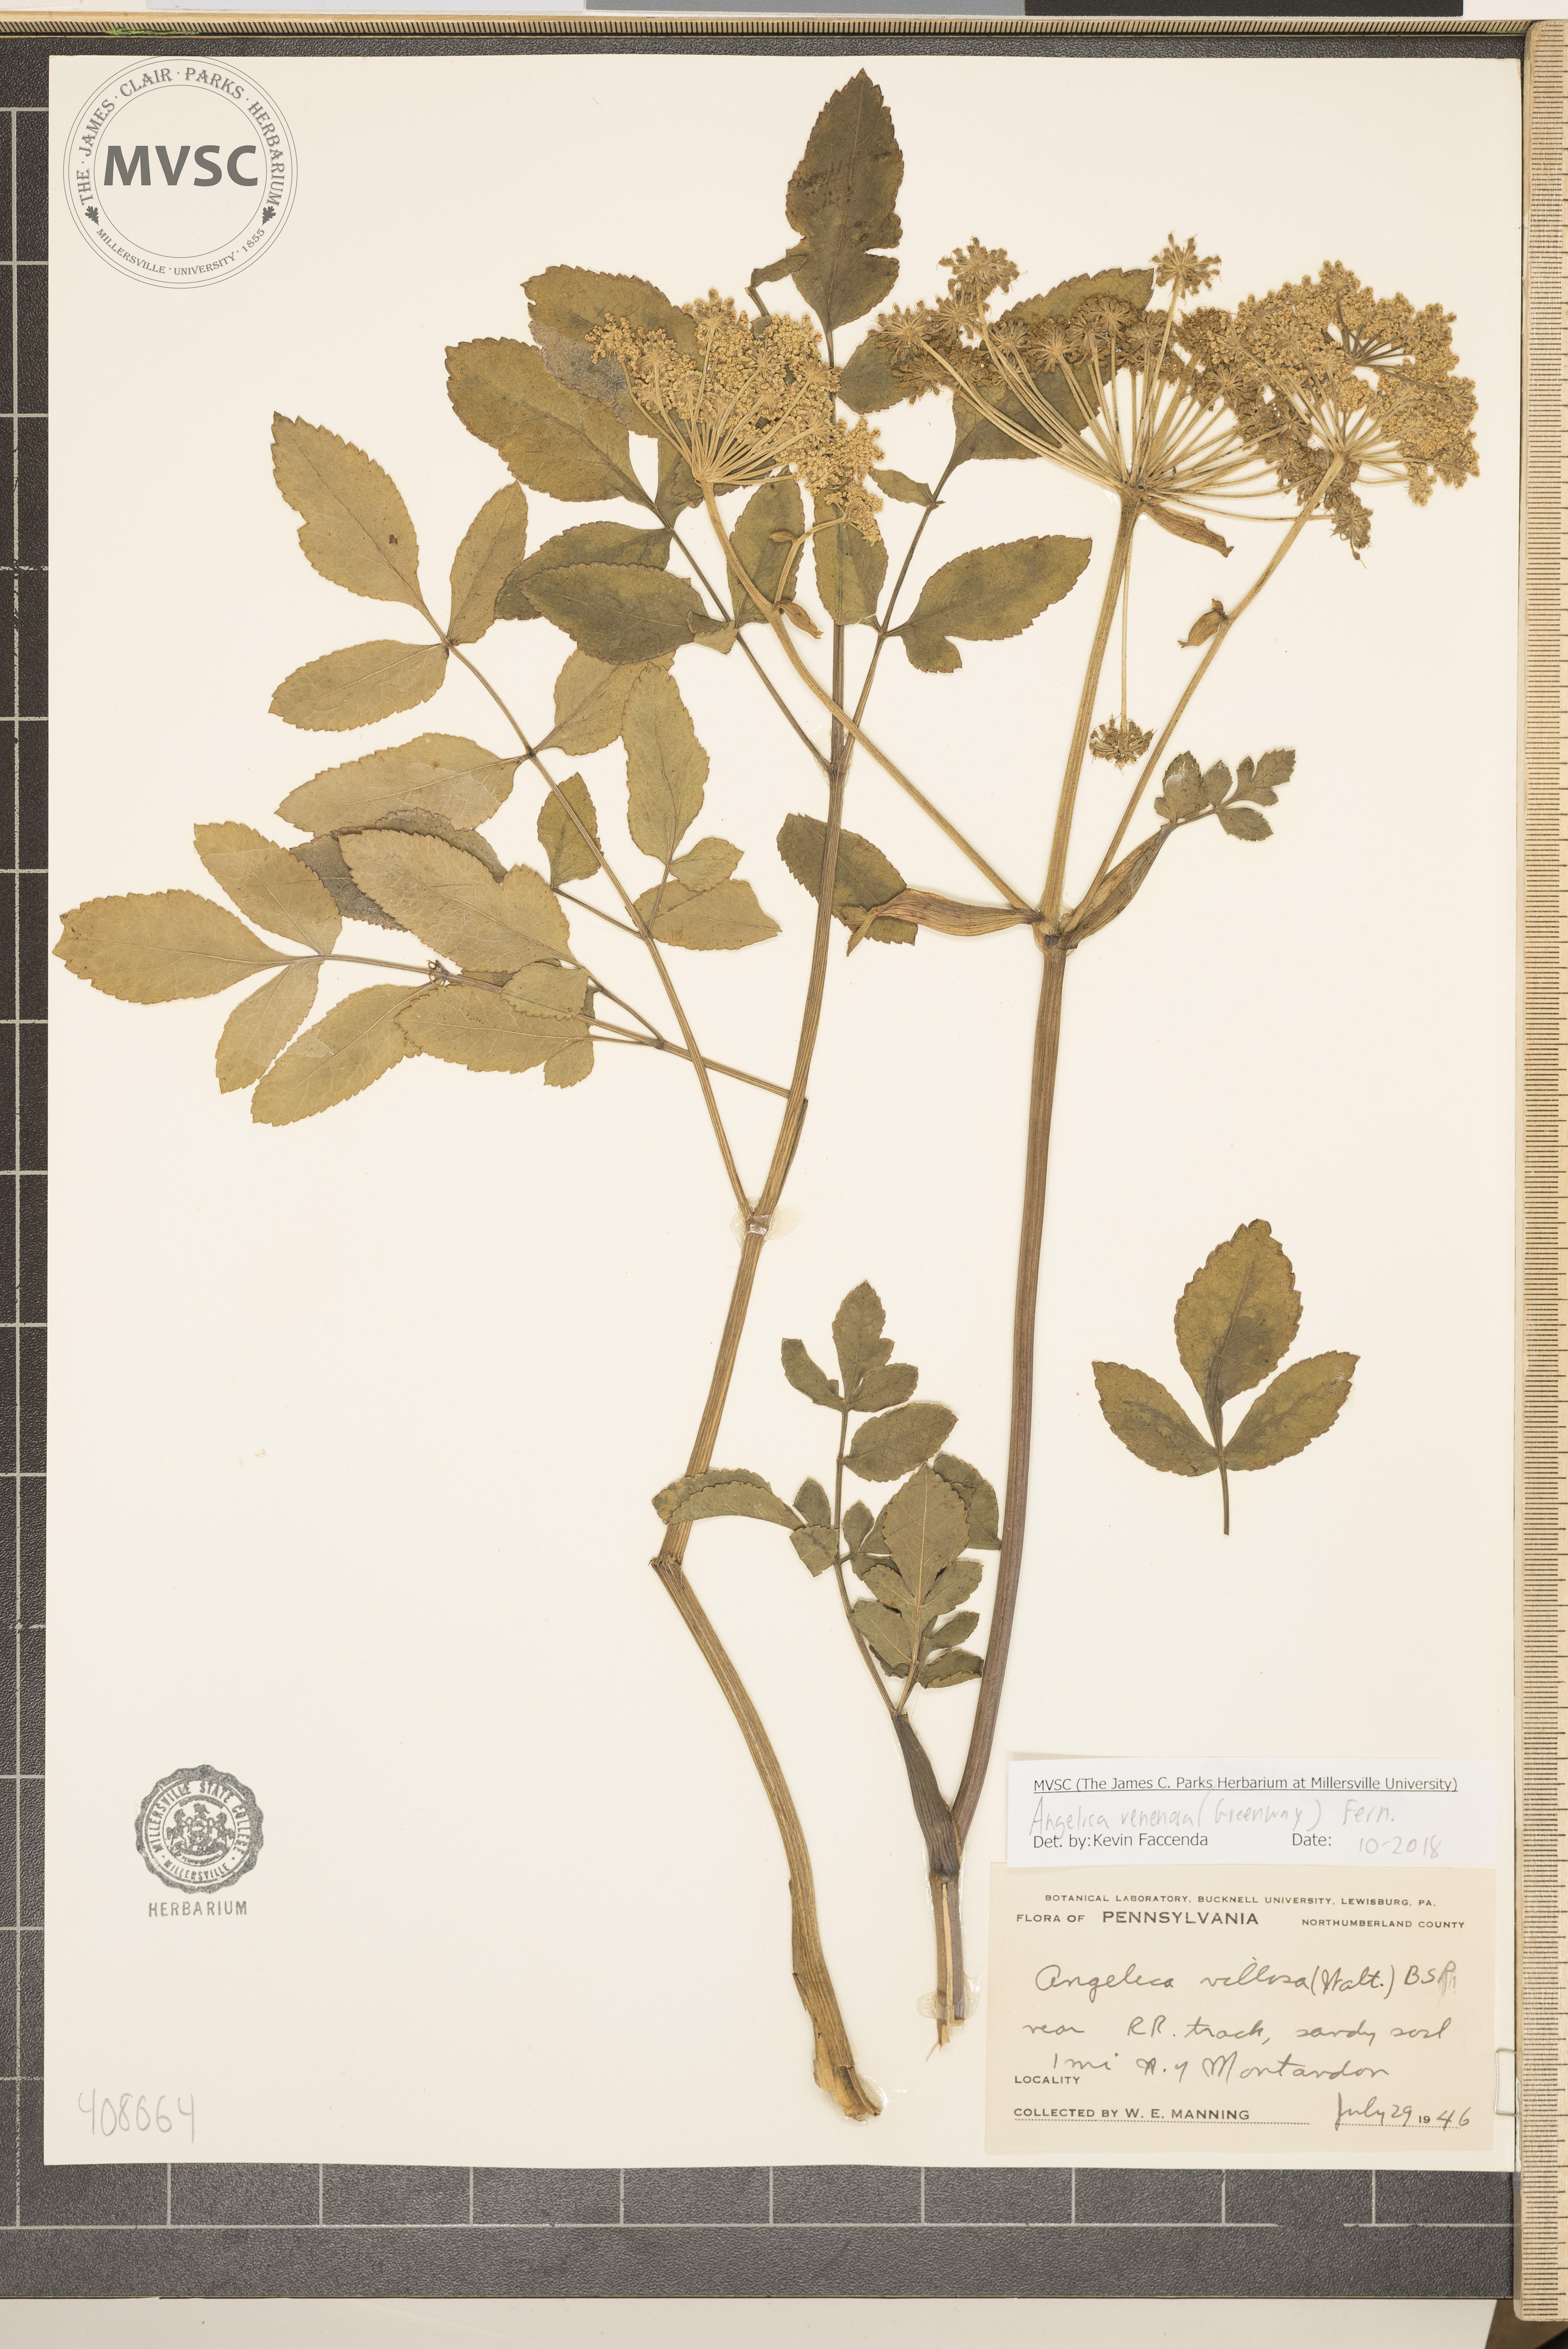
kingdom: Plantae
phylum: Tracheophyta
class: Magnoliopsida
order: Apiales
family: Apiaceae
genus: Angelica
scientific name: Angelica venenosa
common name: Hairy angelica
